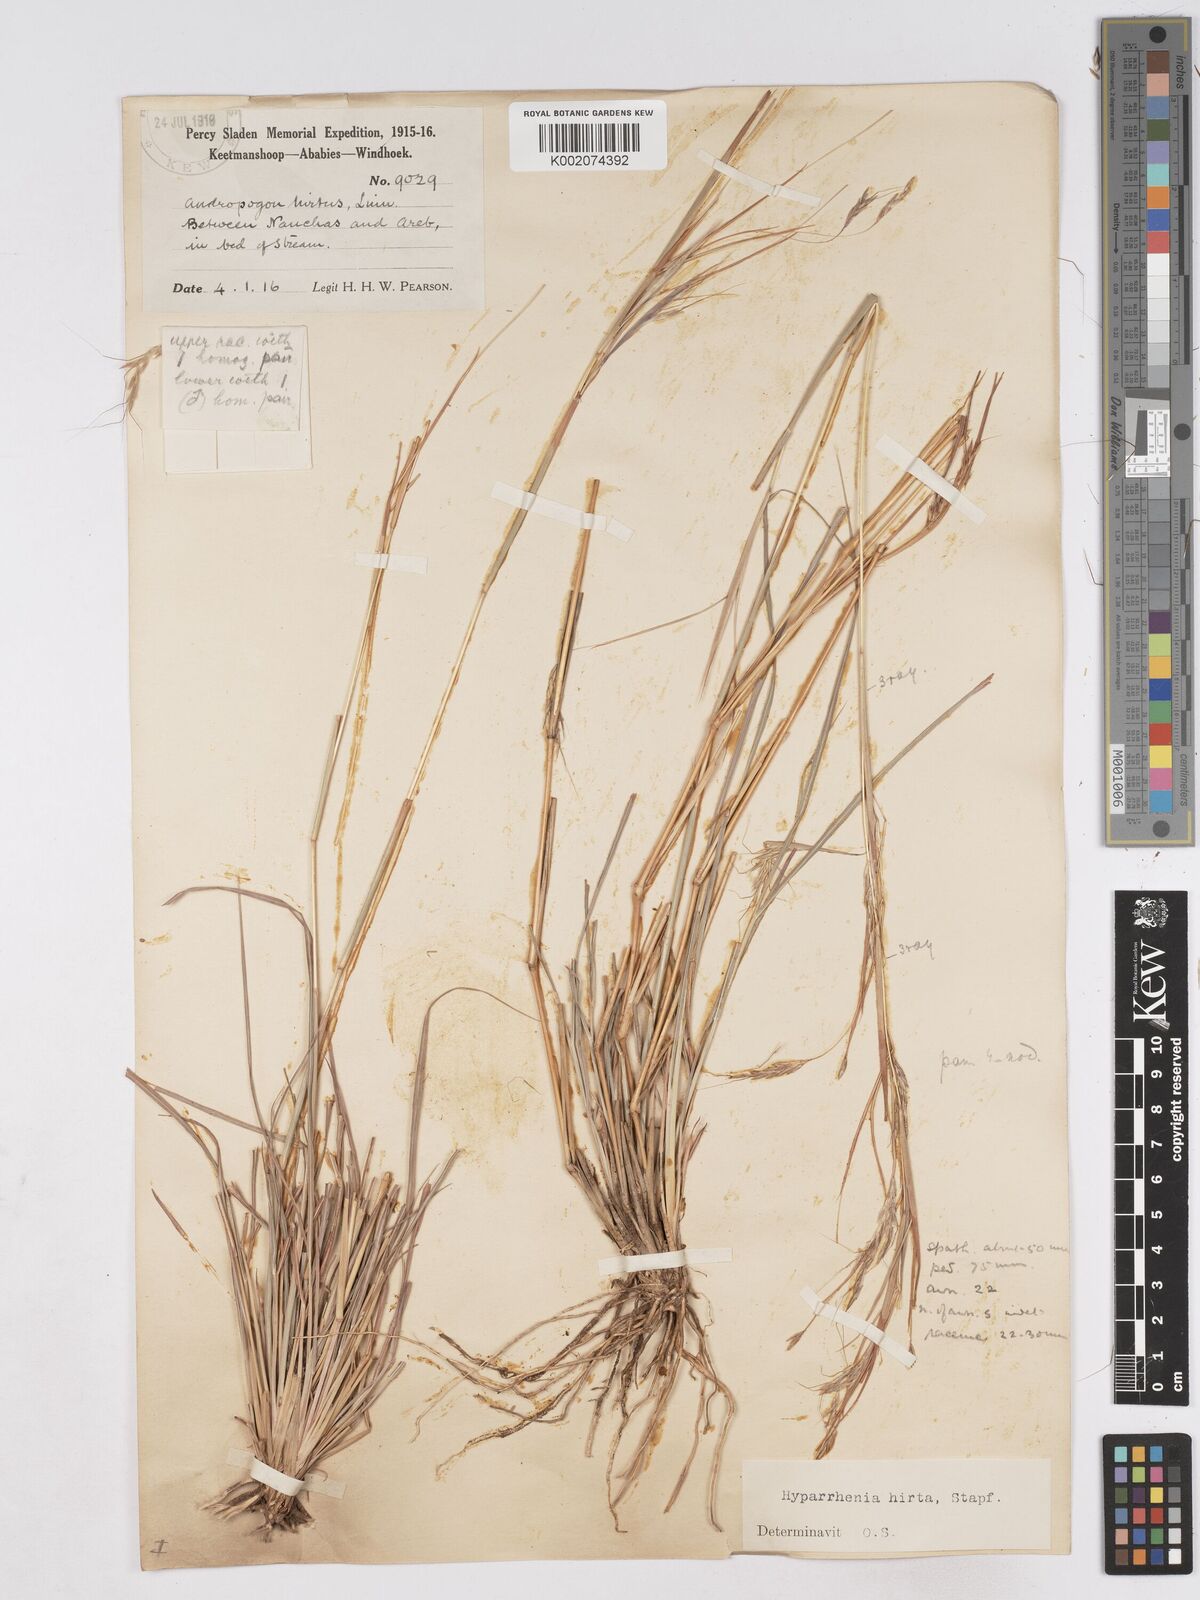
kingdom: Plantae
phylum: Tracheophyta
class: Liliopsida
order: Poales
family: Poaceae
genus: Hyparrhenia
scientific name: Hyparrhenia hirta
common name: Thatching grass
